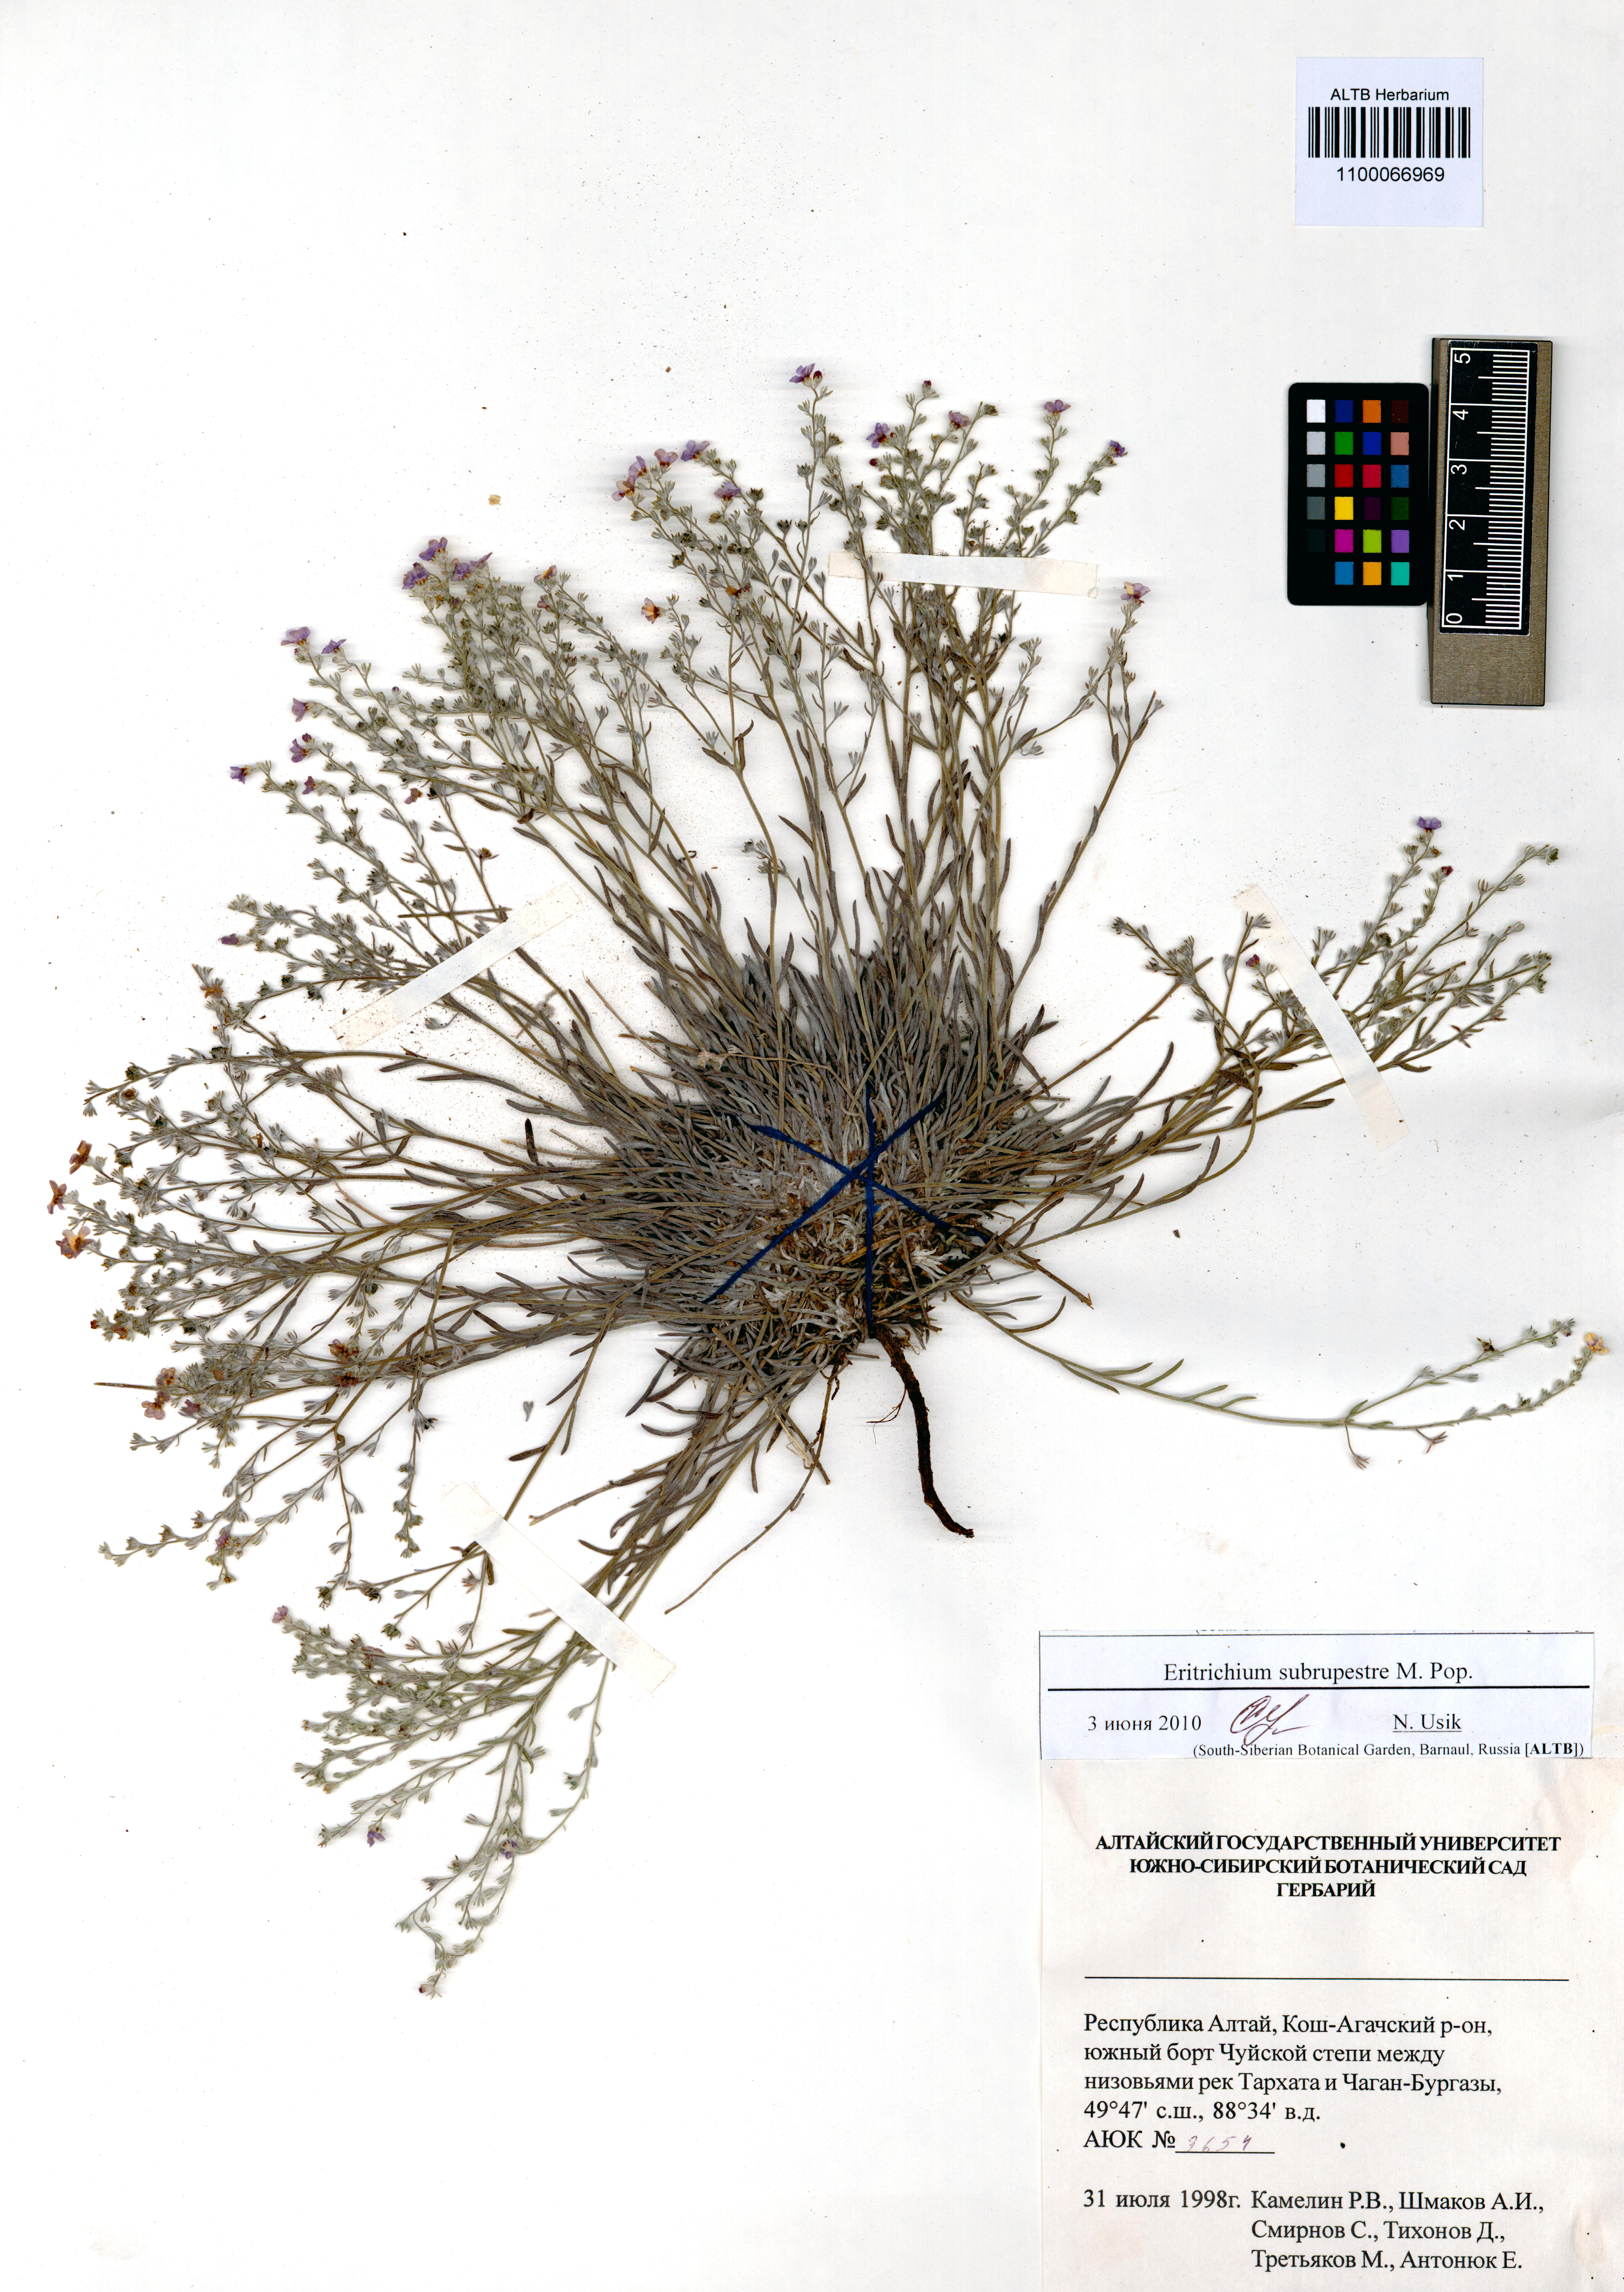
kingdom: Plantae
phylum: Tracheophyta
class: Magnoliopsida
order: Boraginales
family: Boraginaceae
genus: Eritrichium
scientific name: Eritrichium pauciflorum
